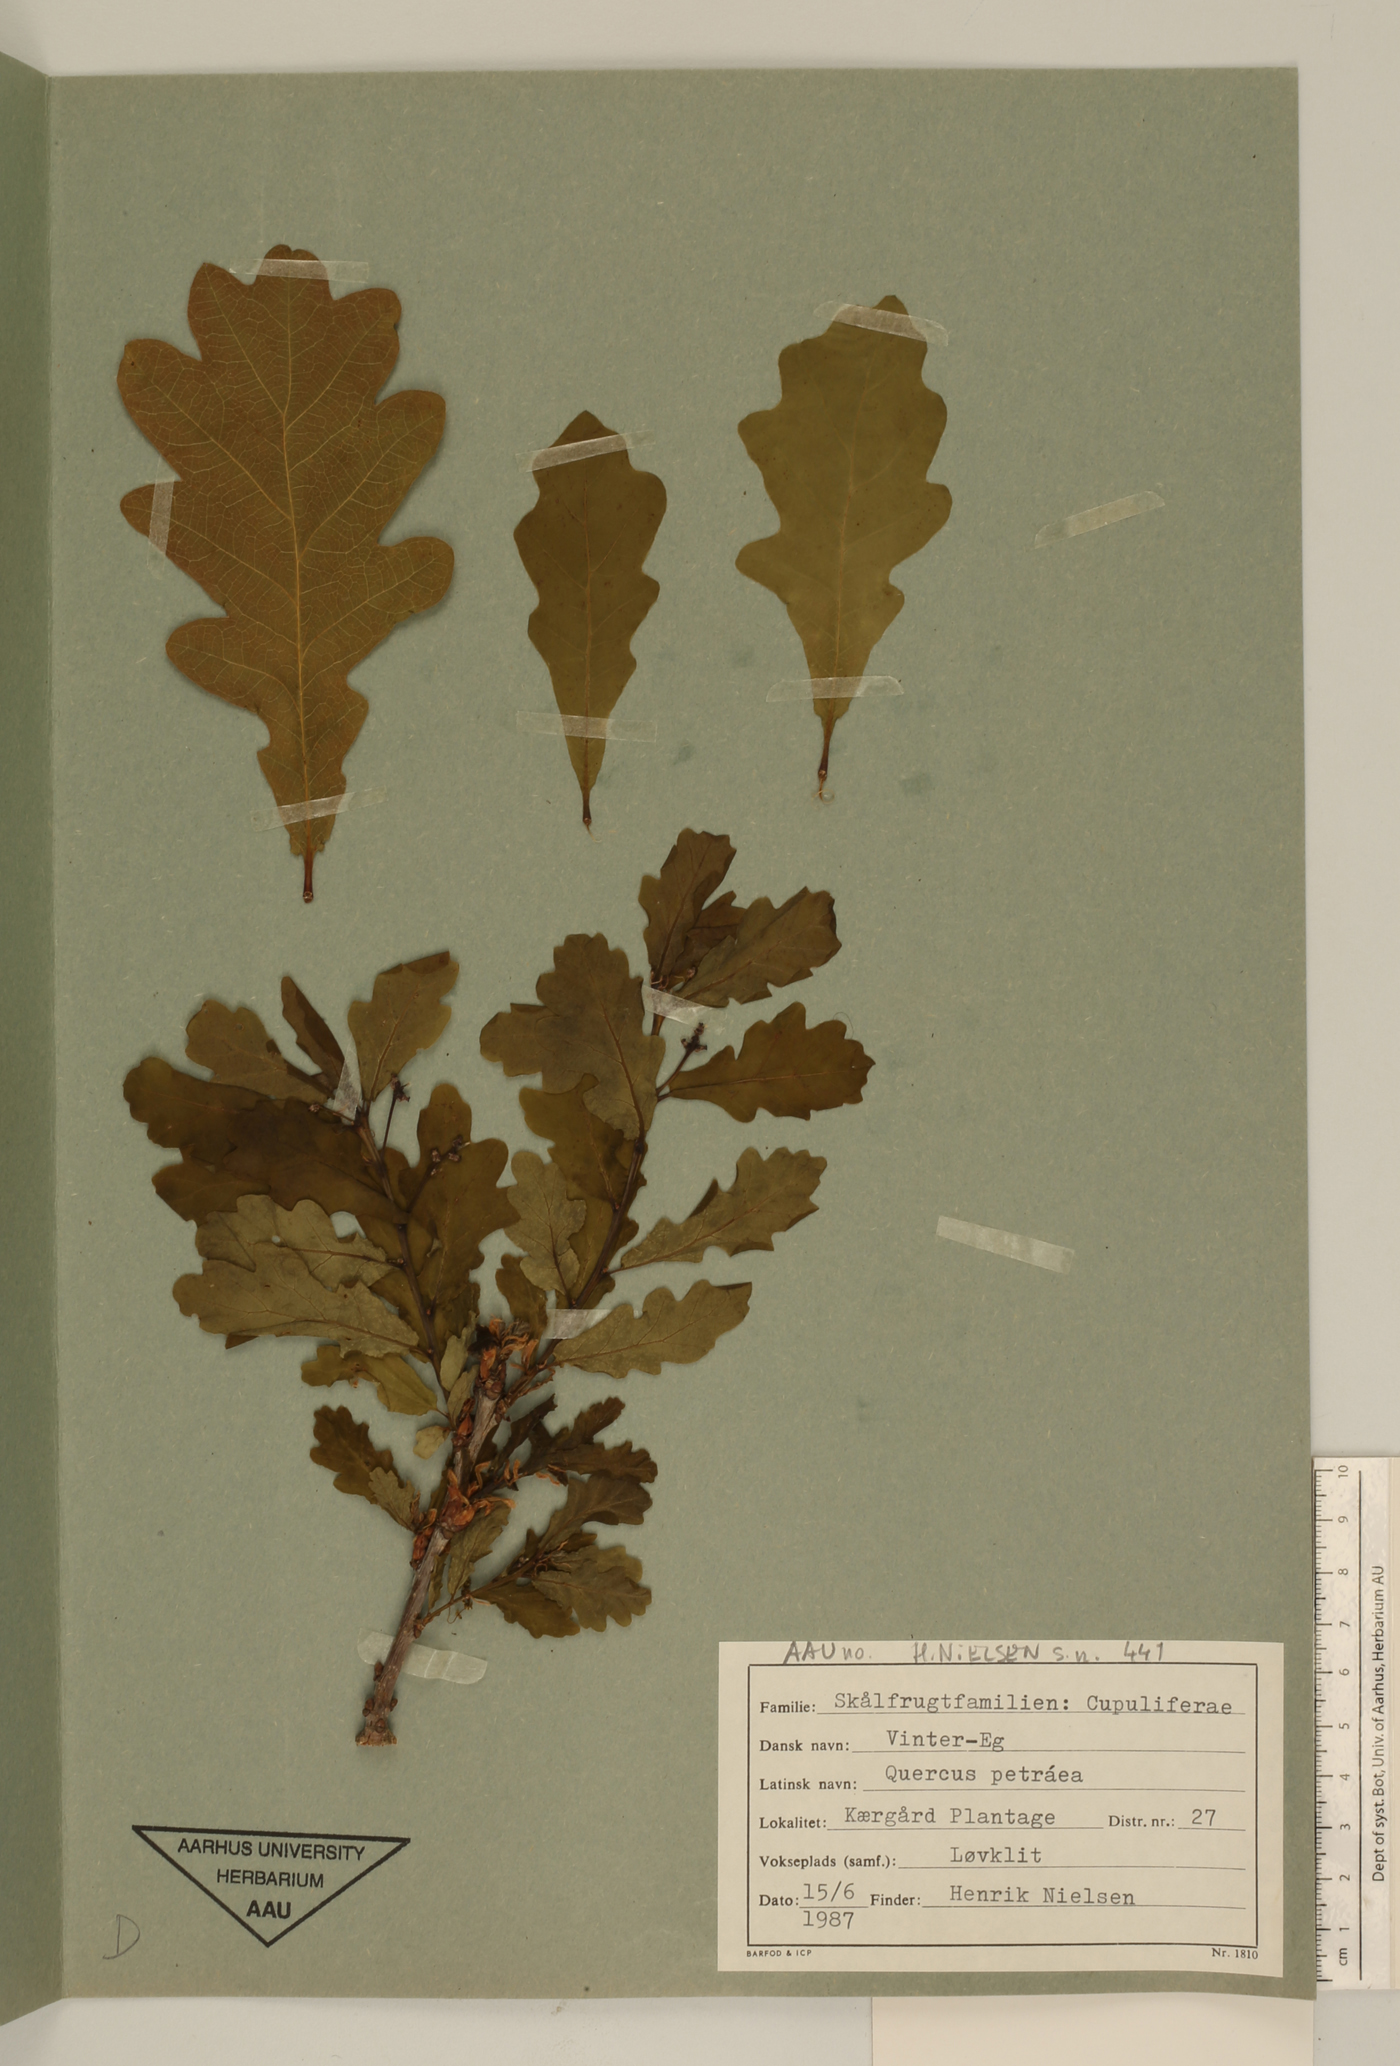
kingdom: Plantae
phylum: Tracheophyta
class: Magnoliopsida
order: Fagales
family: Fagaceae
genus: Quercus
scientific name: Quercus petraea
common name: Sessile oak
